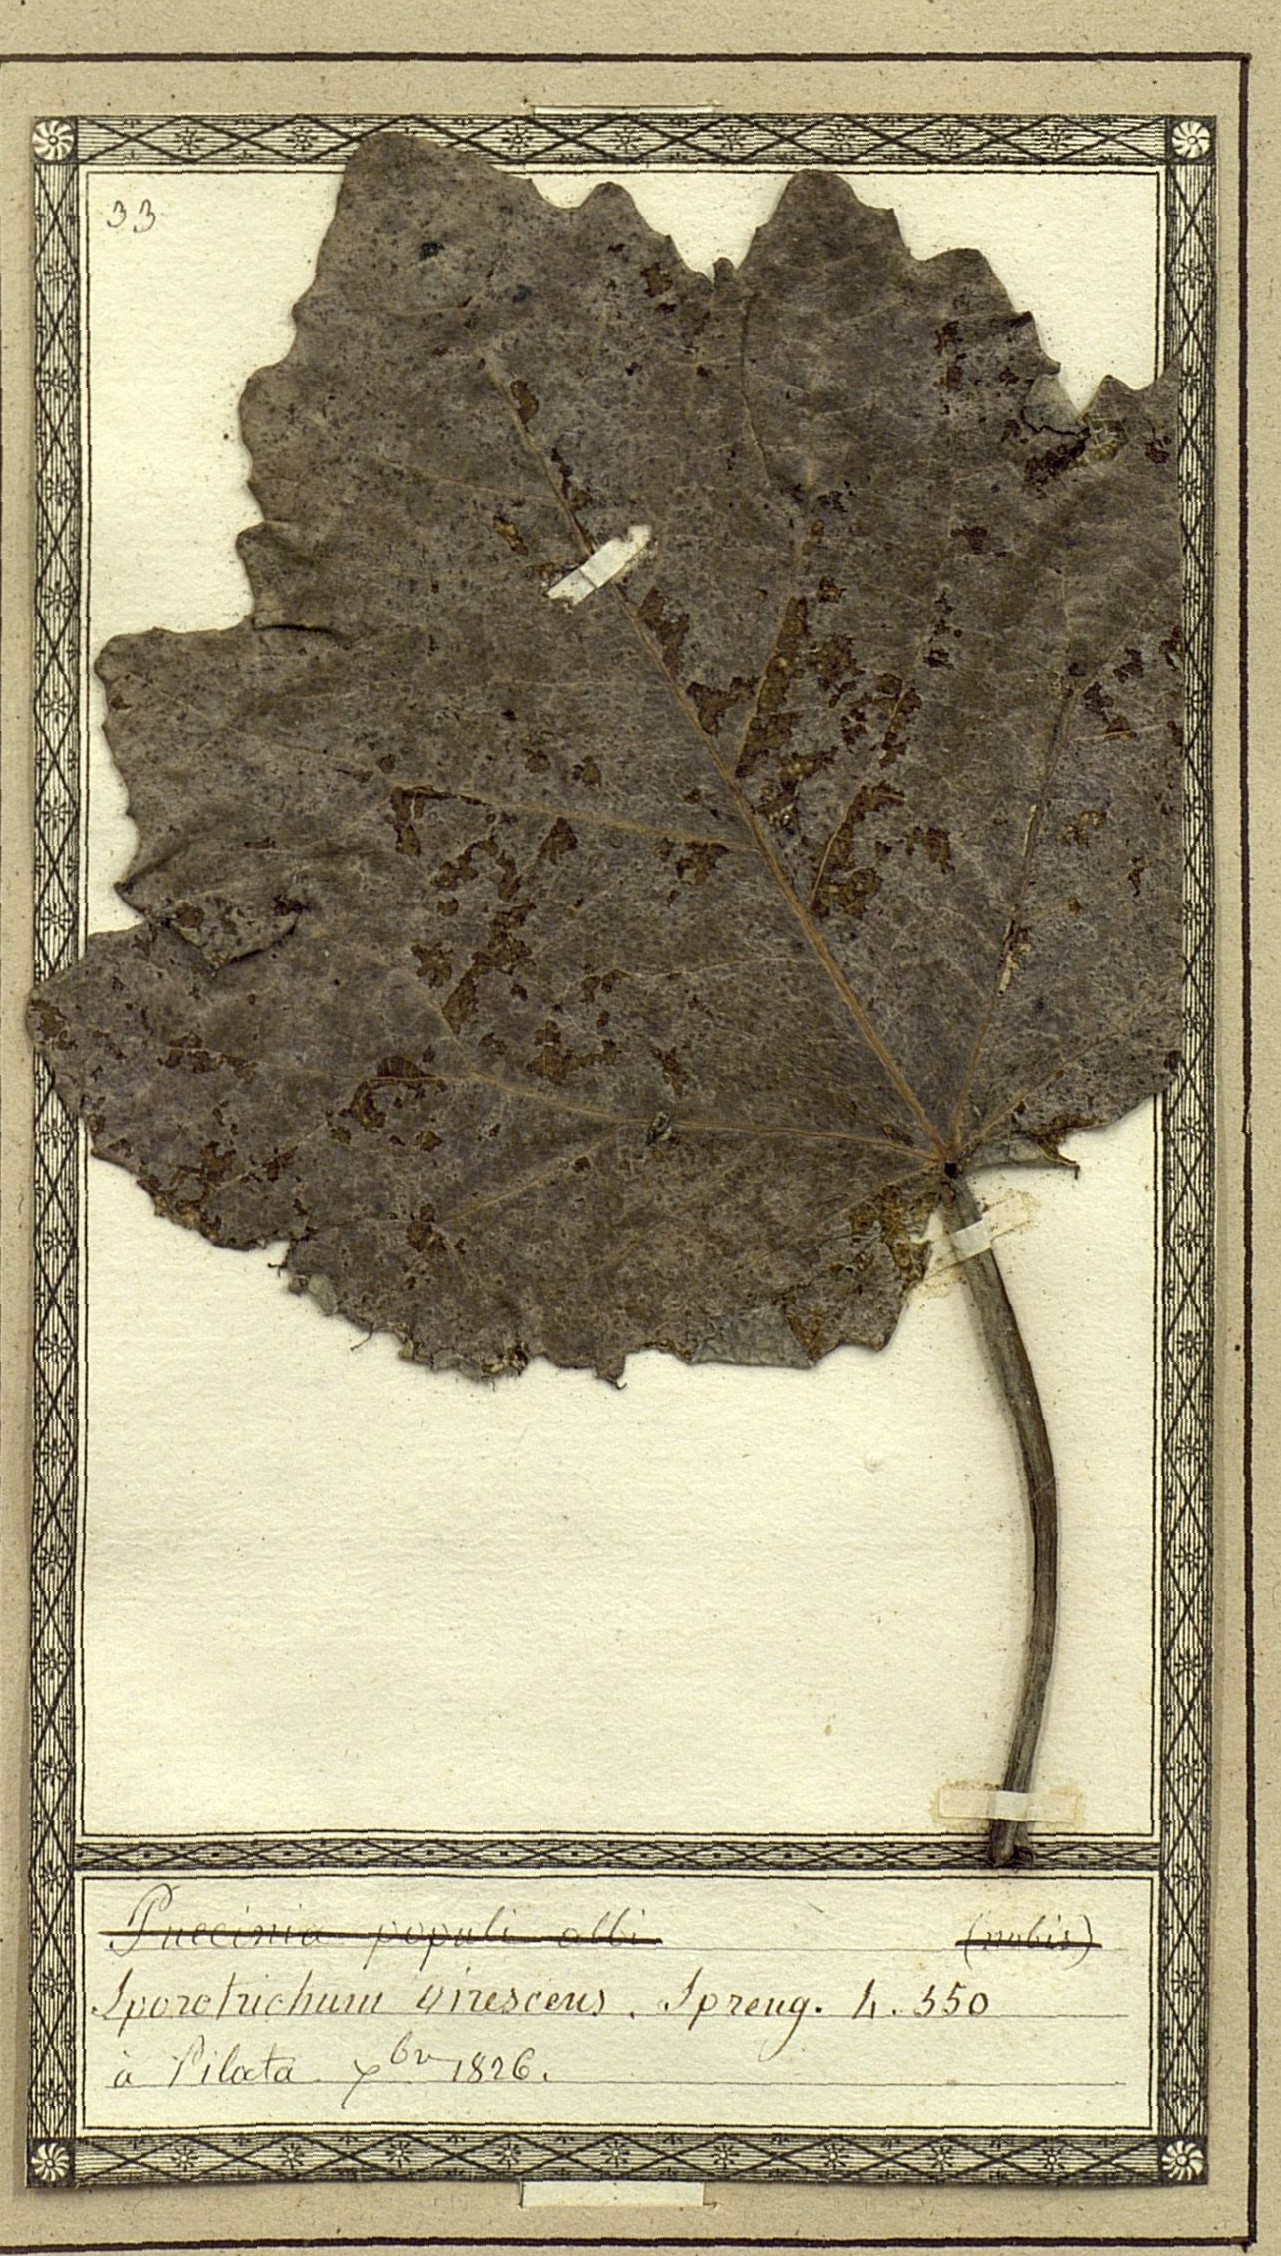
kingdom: Fungi
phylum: Ascomycota
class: Sordariomycetes
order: Chaetosphaeriales
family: Chaetosphaeriaceae
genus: Chaetosphaeria
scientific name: Chaetosphaeria vermicularioides
